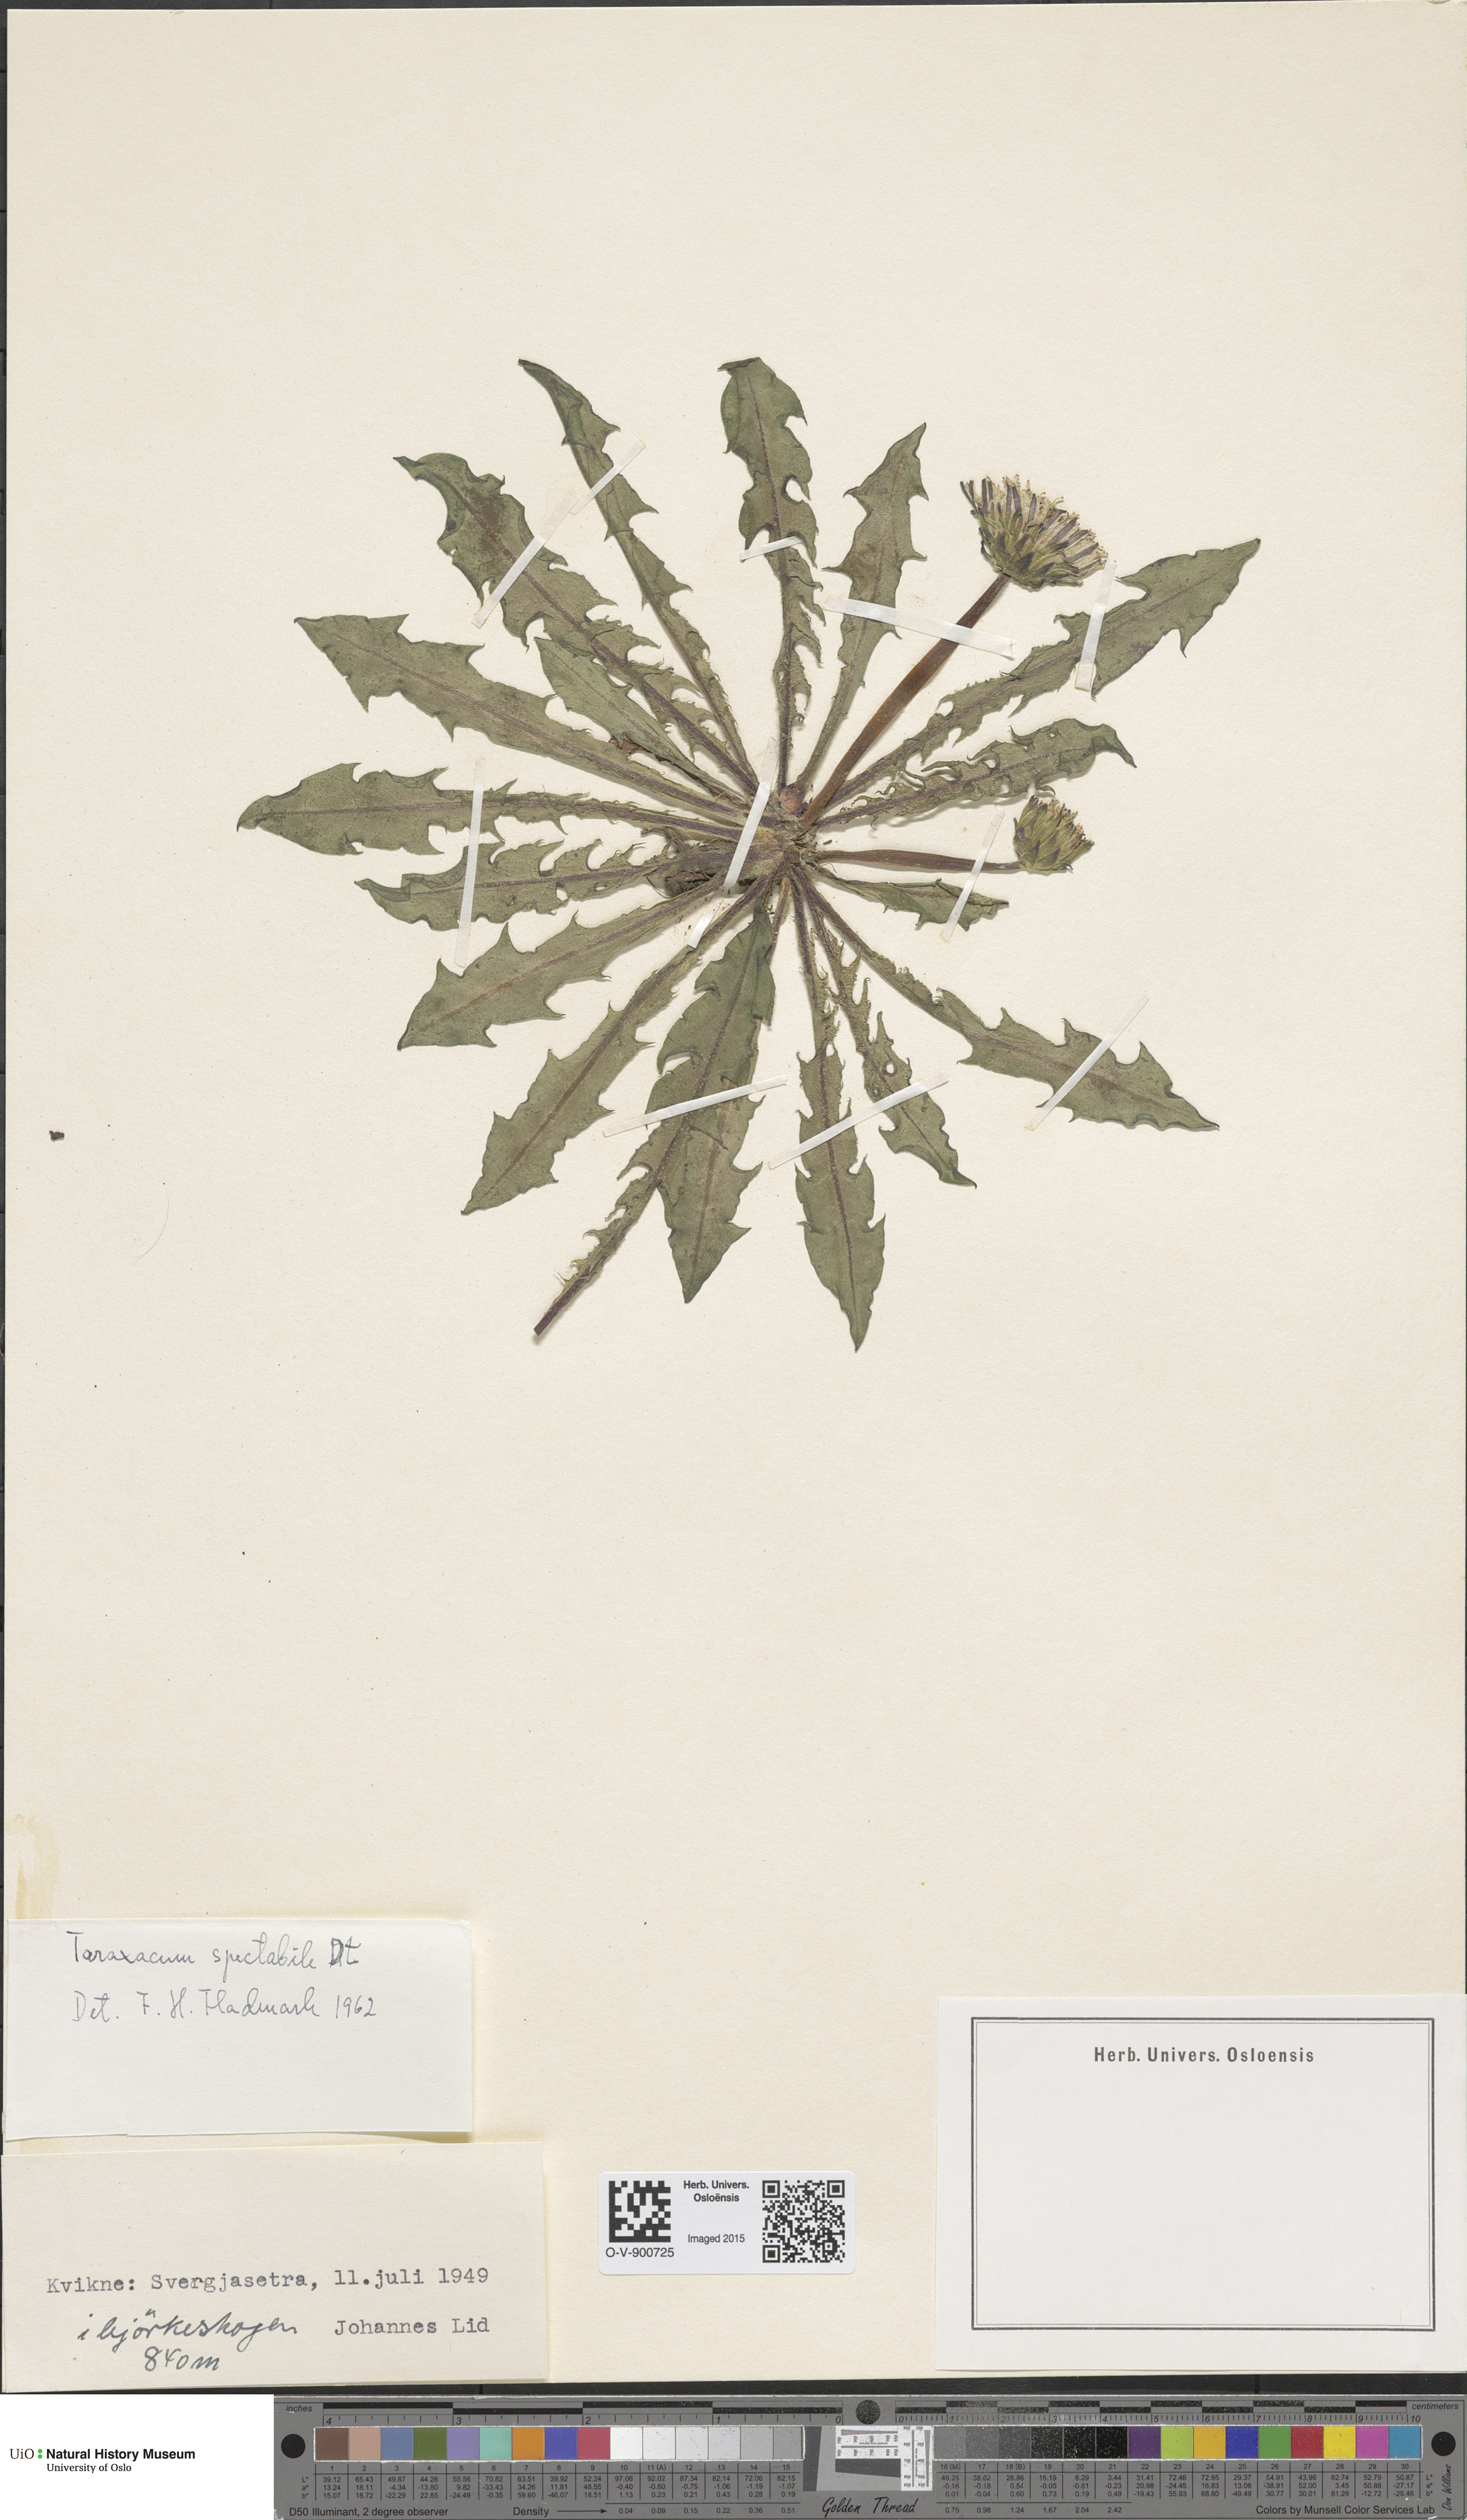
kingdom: Plantae
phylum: Tracheophyta
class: Magnoliopsida
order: Asterales
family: Asteraceae
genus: Taraxacum
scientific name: Taraxacum spectabile
